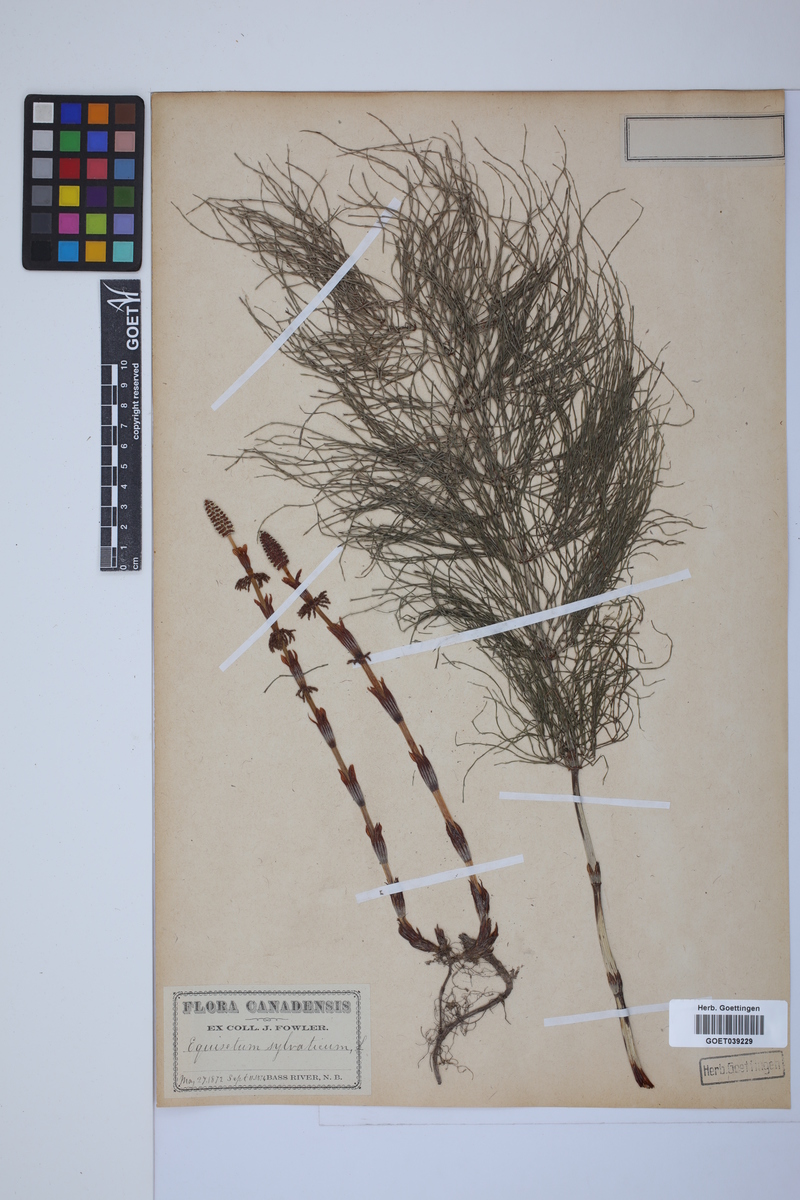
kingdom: Plantae
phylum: Tracheophyta
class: Polypodiopsida
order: Equisetales
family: Equisetaceae
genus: Equisetum
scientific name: Equisetum sylvaticum
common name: Wood horsetail
